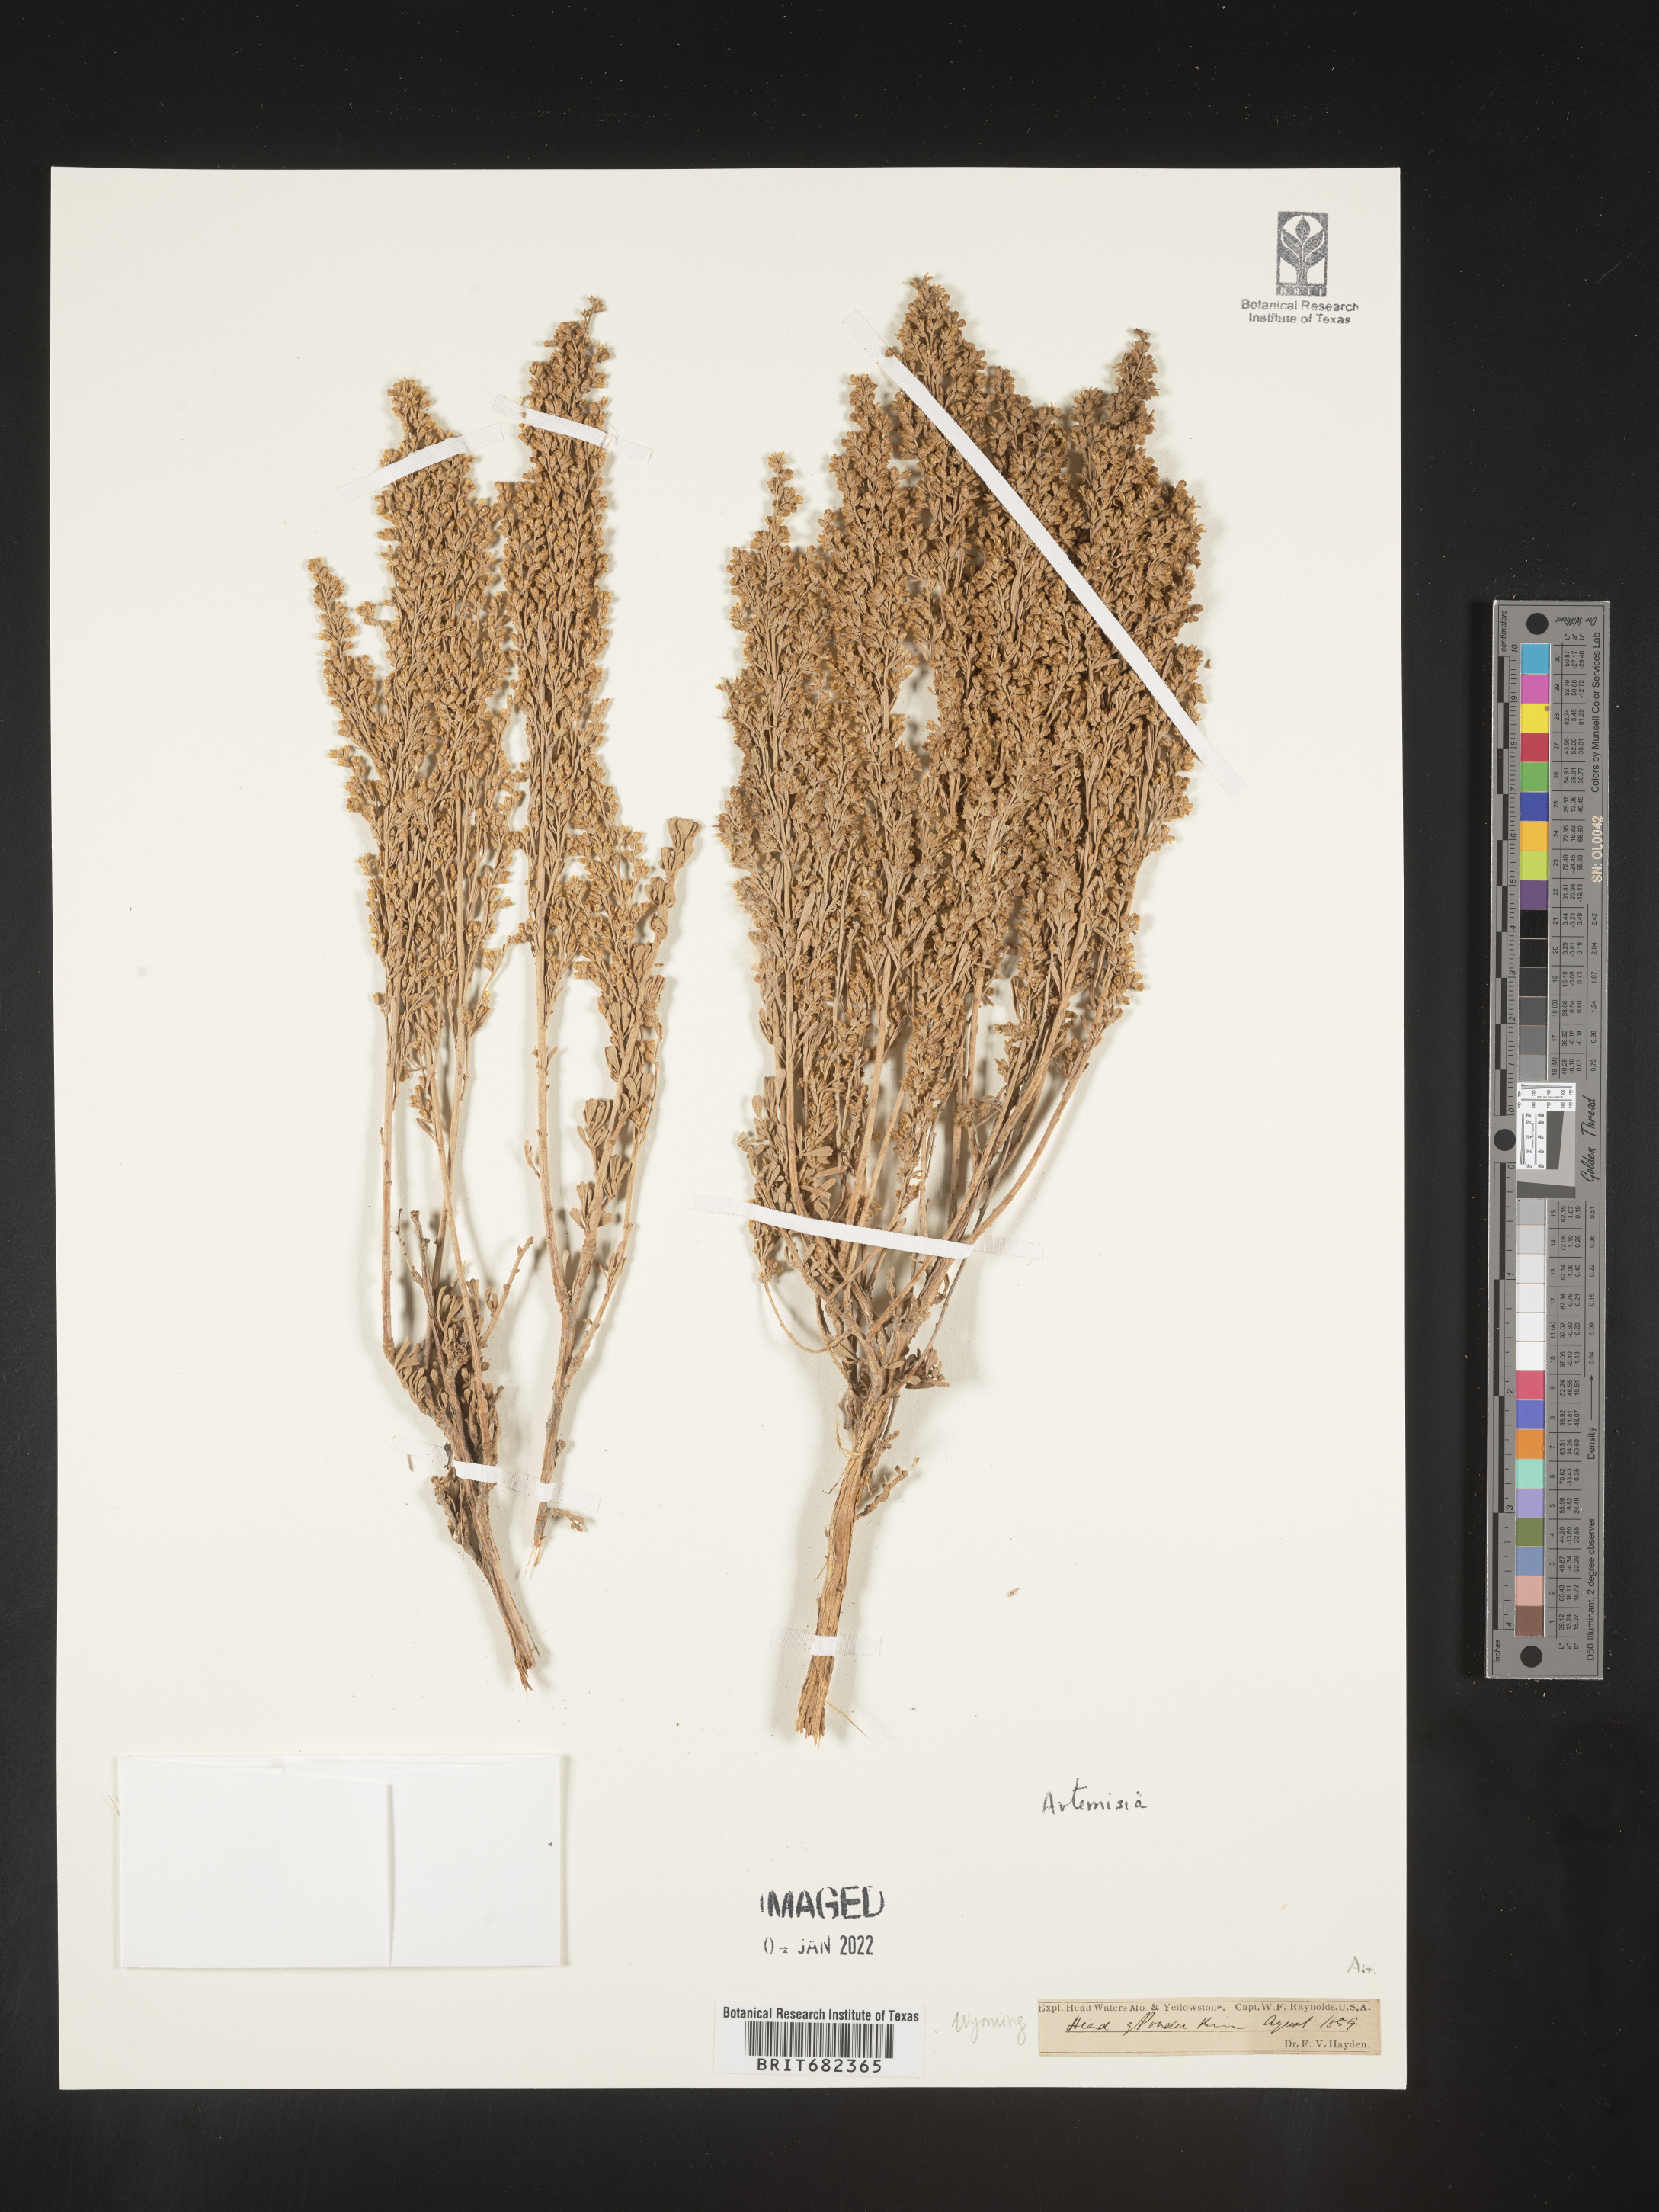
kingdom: Plantae
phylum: Tracheophyta
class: Magnoliopsida
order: Asterales
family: Asteraceae
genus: Artemisia
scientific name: Artemisia
